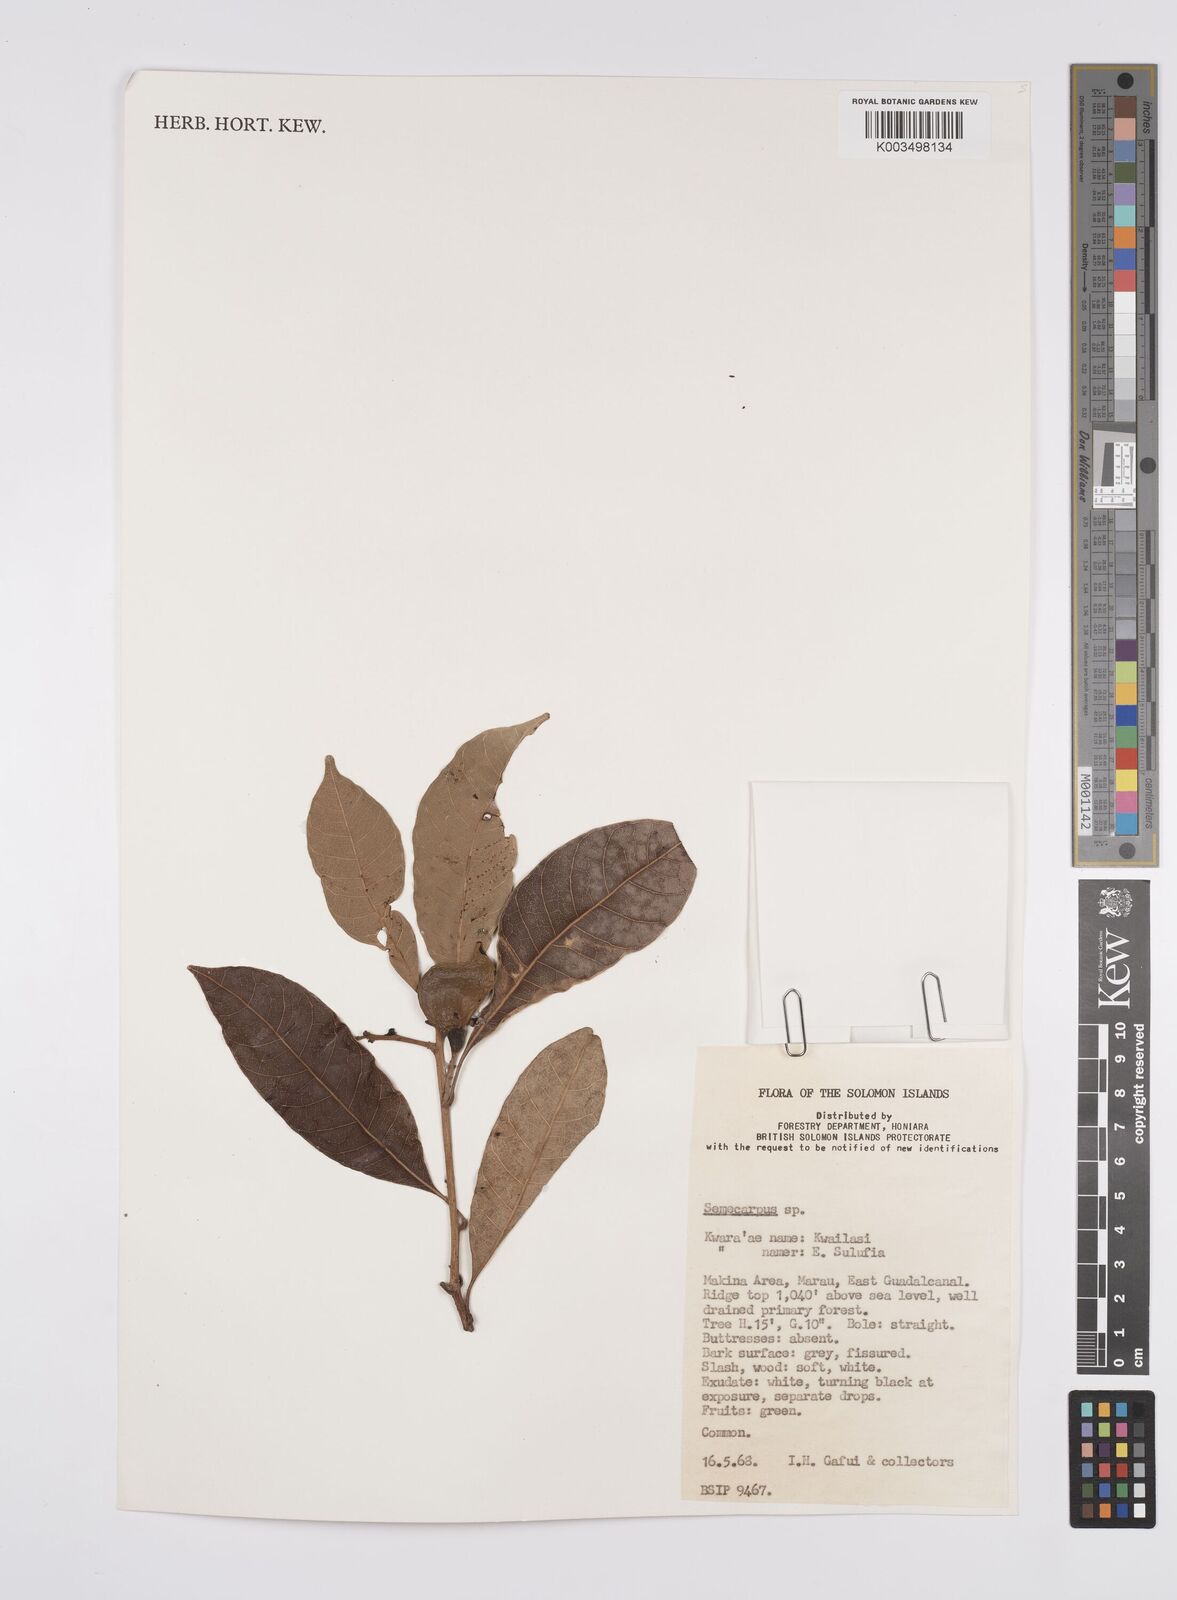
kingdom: Plantae
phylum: Tracheophyta
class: Magnoliopsida
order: Sapindales
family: Anacardiaceae
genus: Semecarpus
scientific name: Semecarpus
